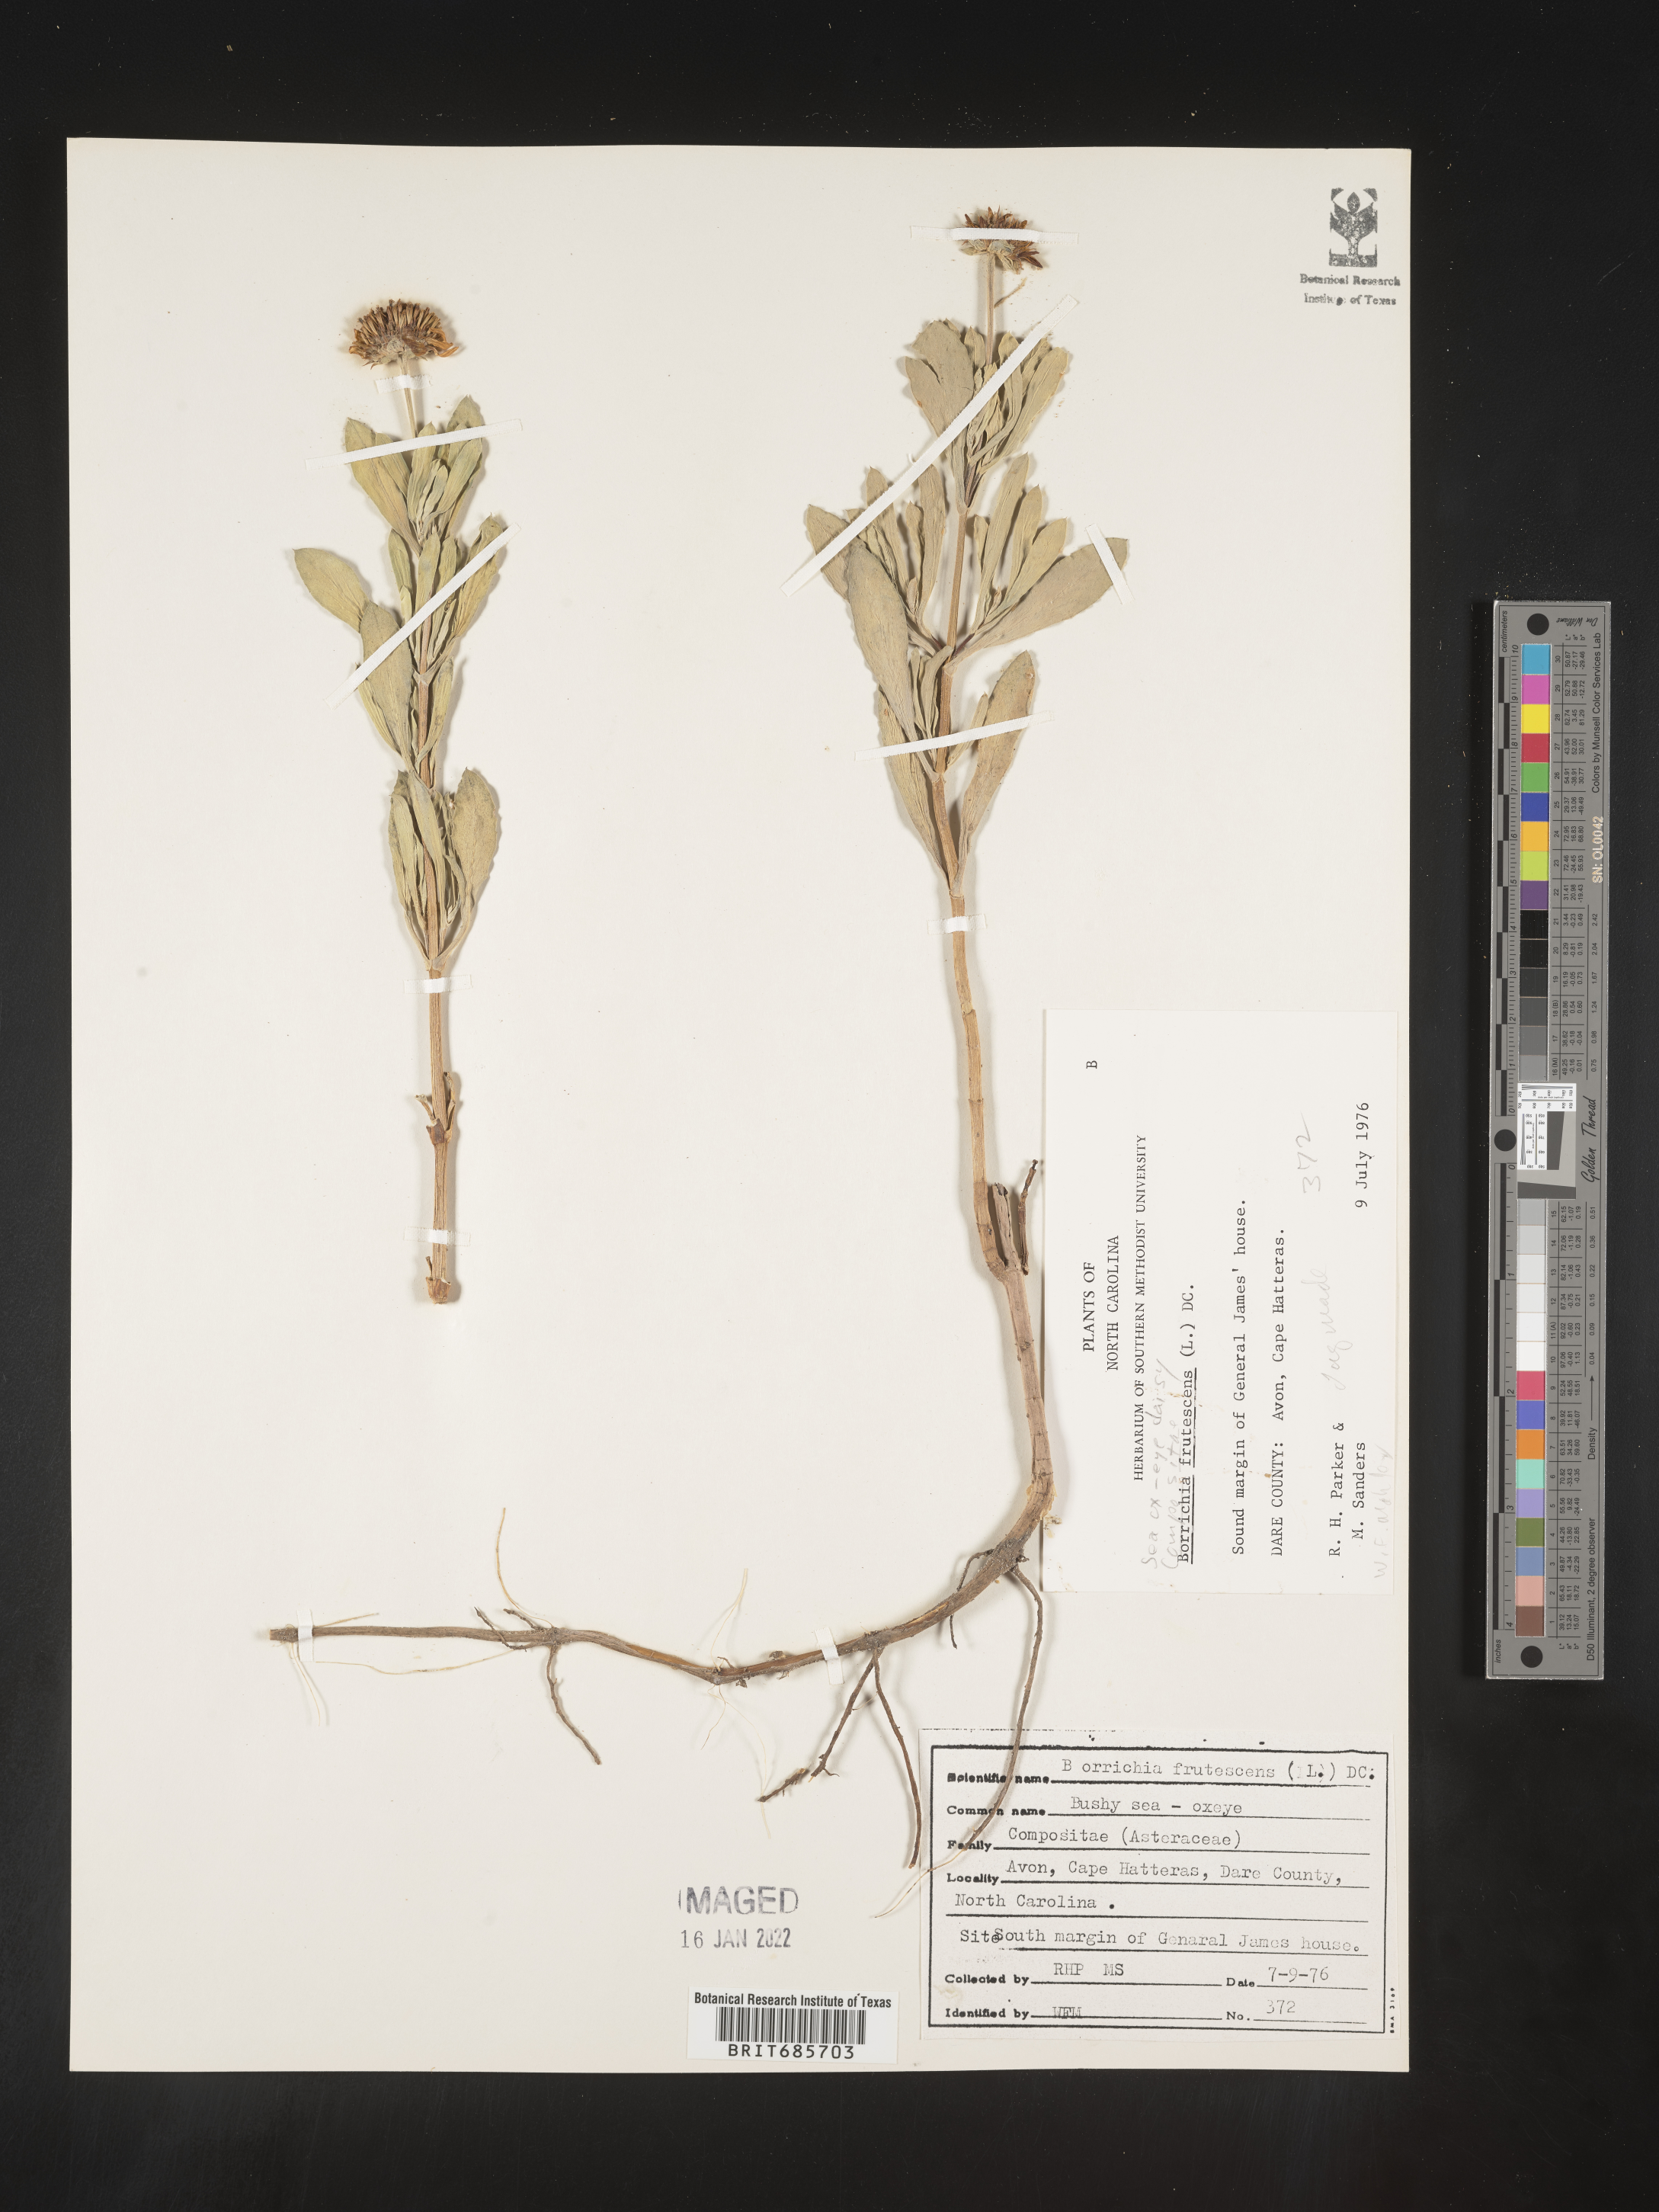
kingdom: Plantae
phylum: Tracheophyta
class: Magnoliopsida
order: Asterales
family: Asteraceae
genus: Borrichia
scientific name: Borrichia frutescens
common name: Sea oxeye
